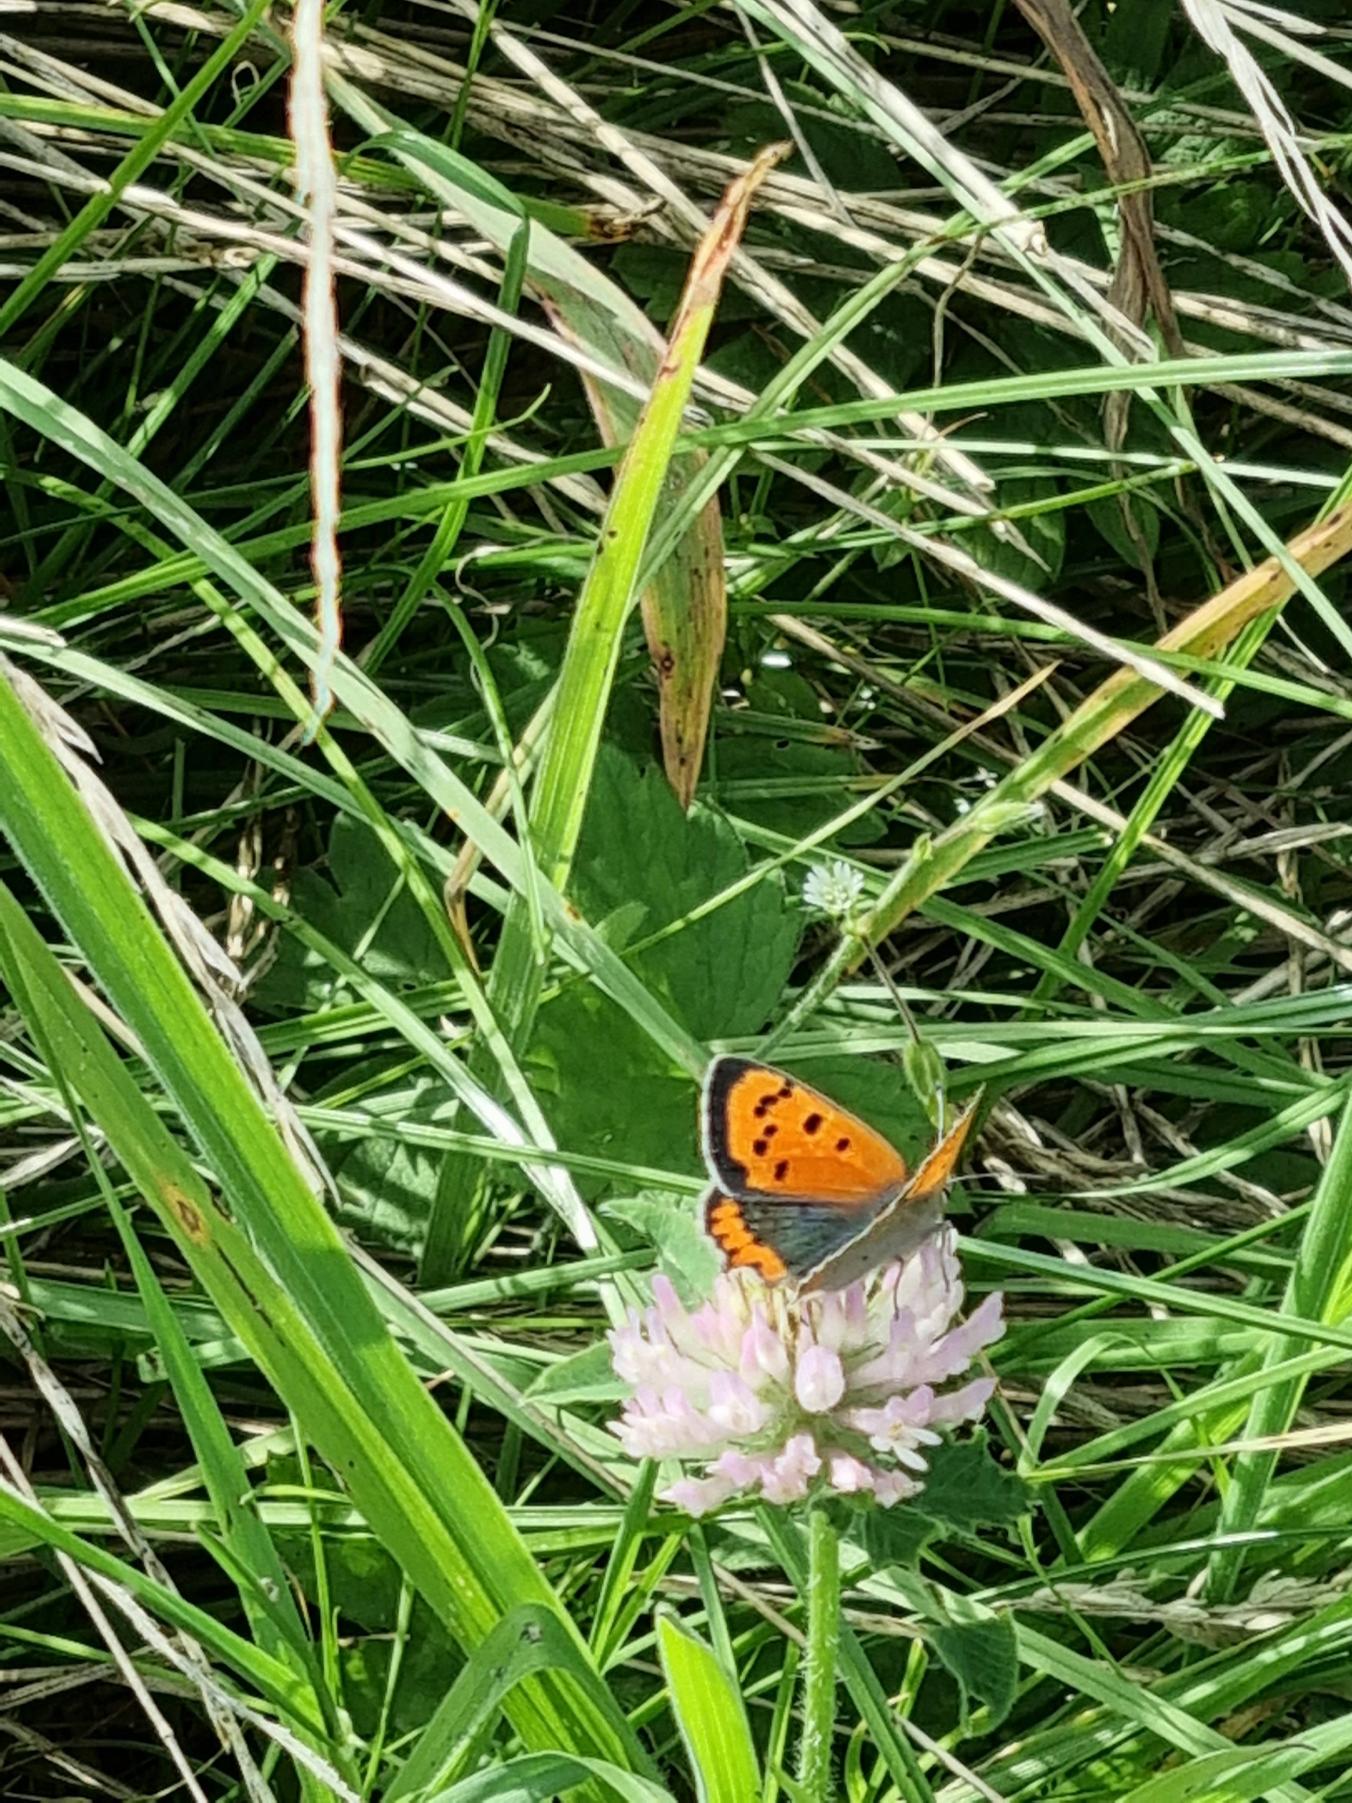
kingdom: Animalia
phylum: Arthropoda
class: Insecta
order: Lepidoptera
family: Lycaenidae
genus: Lycaena
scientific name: Lycaena phlaeas
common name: Lille ildfugl
